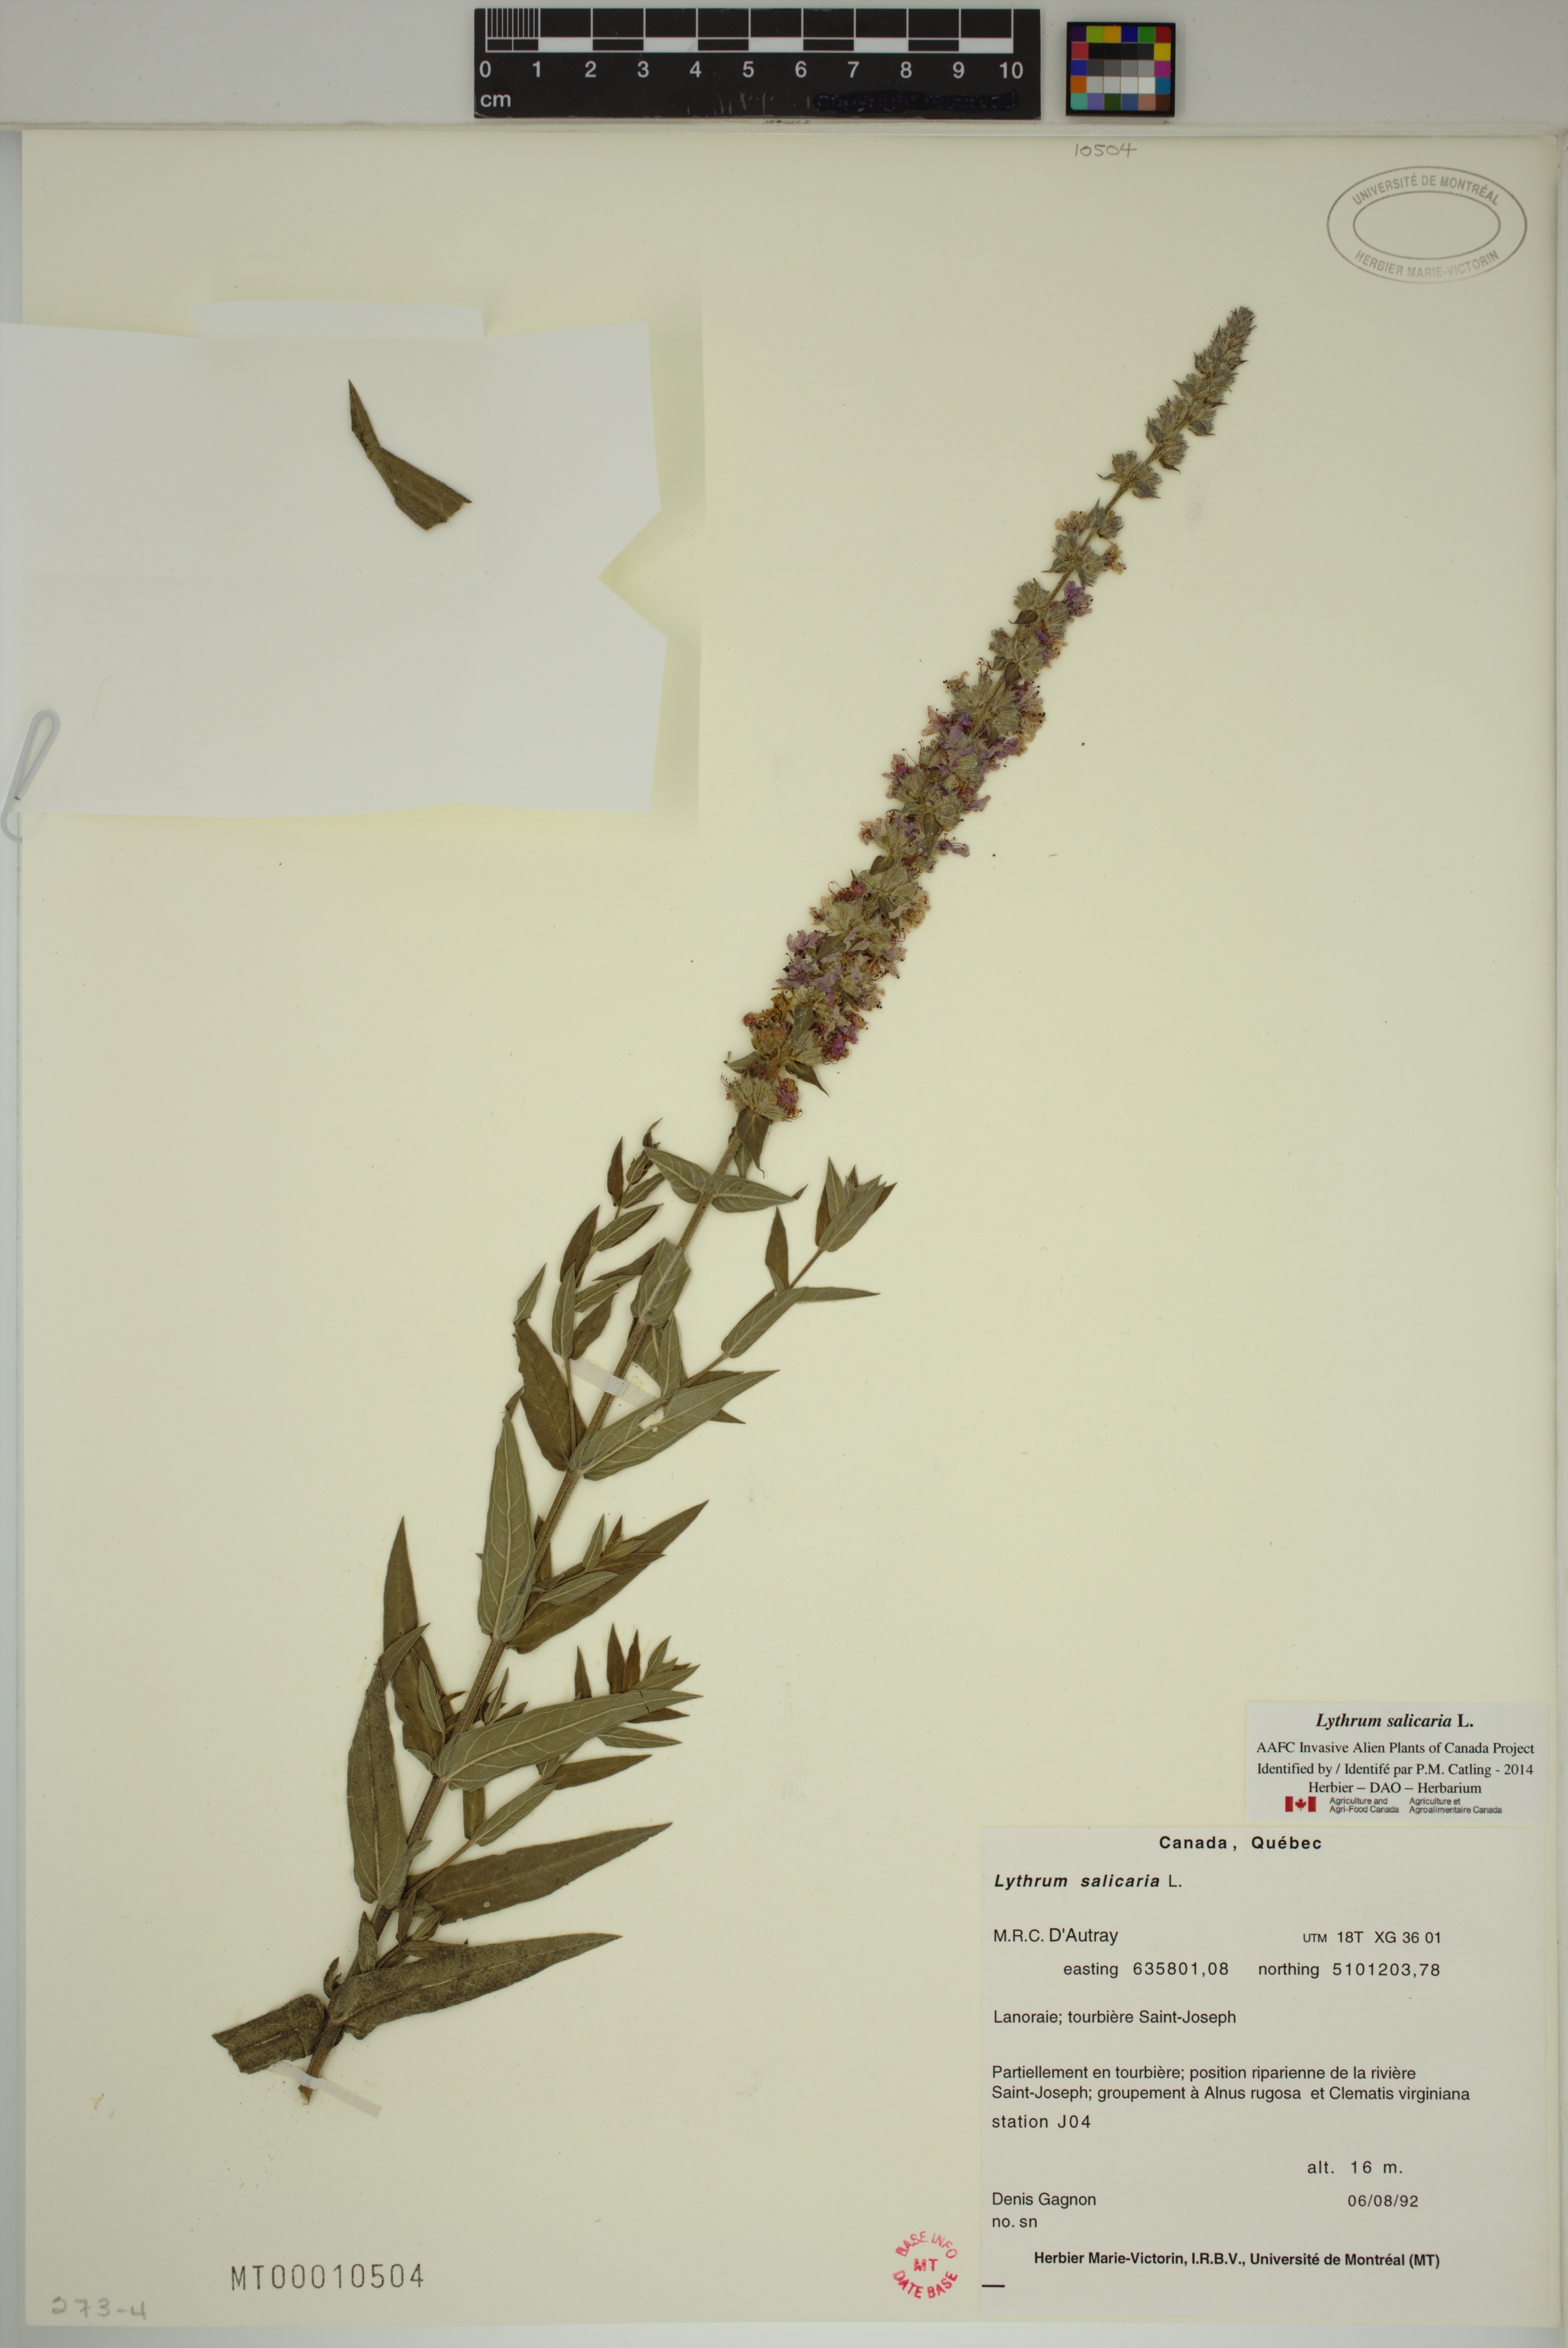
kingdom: Plantae
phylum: Tracheophyta
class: Magnoliopsida
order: Myrtales
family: Lythraceae
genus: Lythrum
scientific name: Lythrum salicaria
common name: Purple loosestrife
